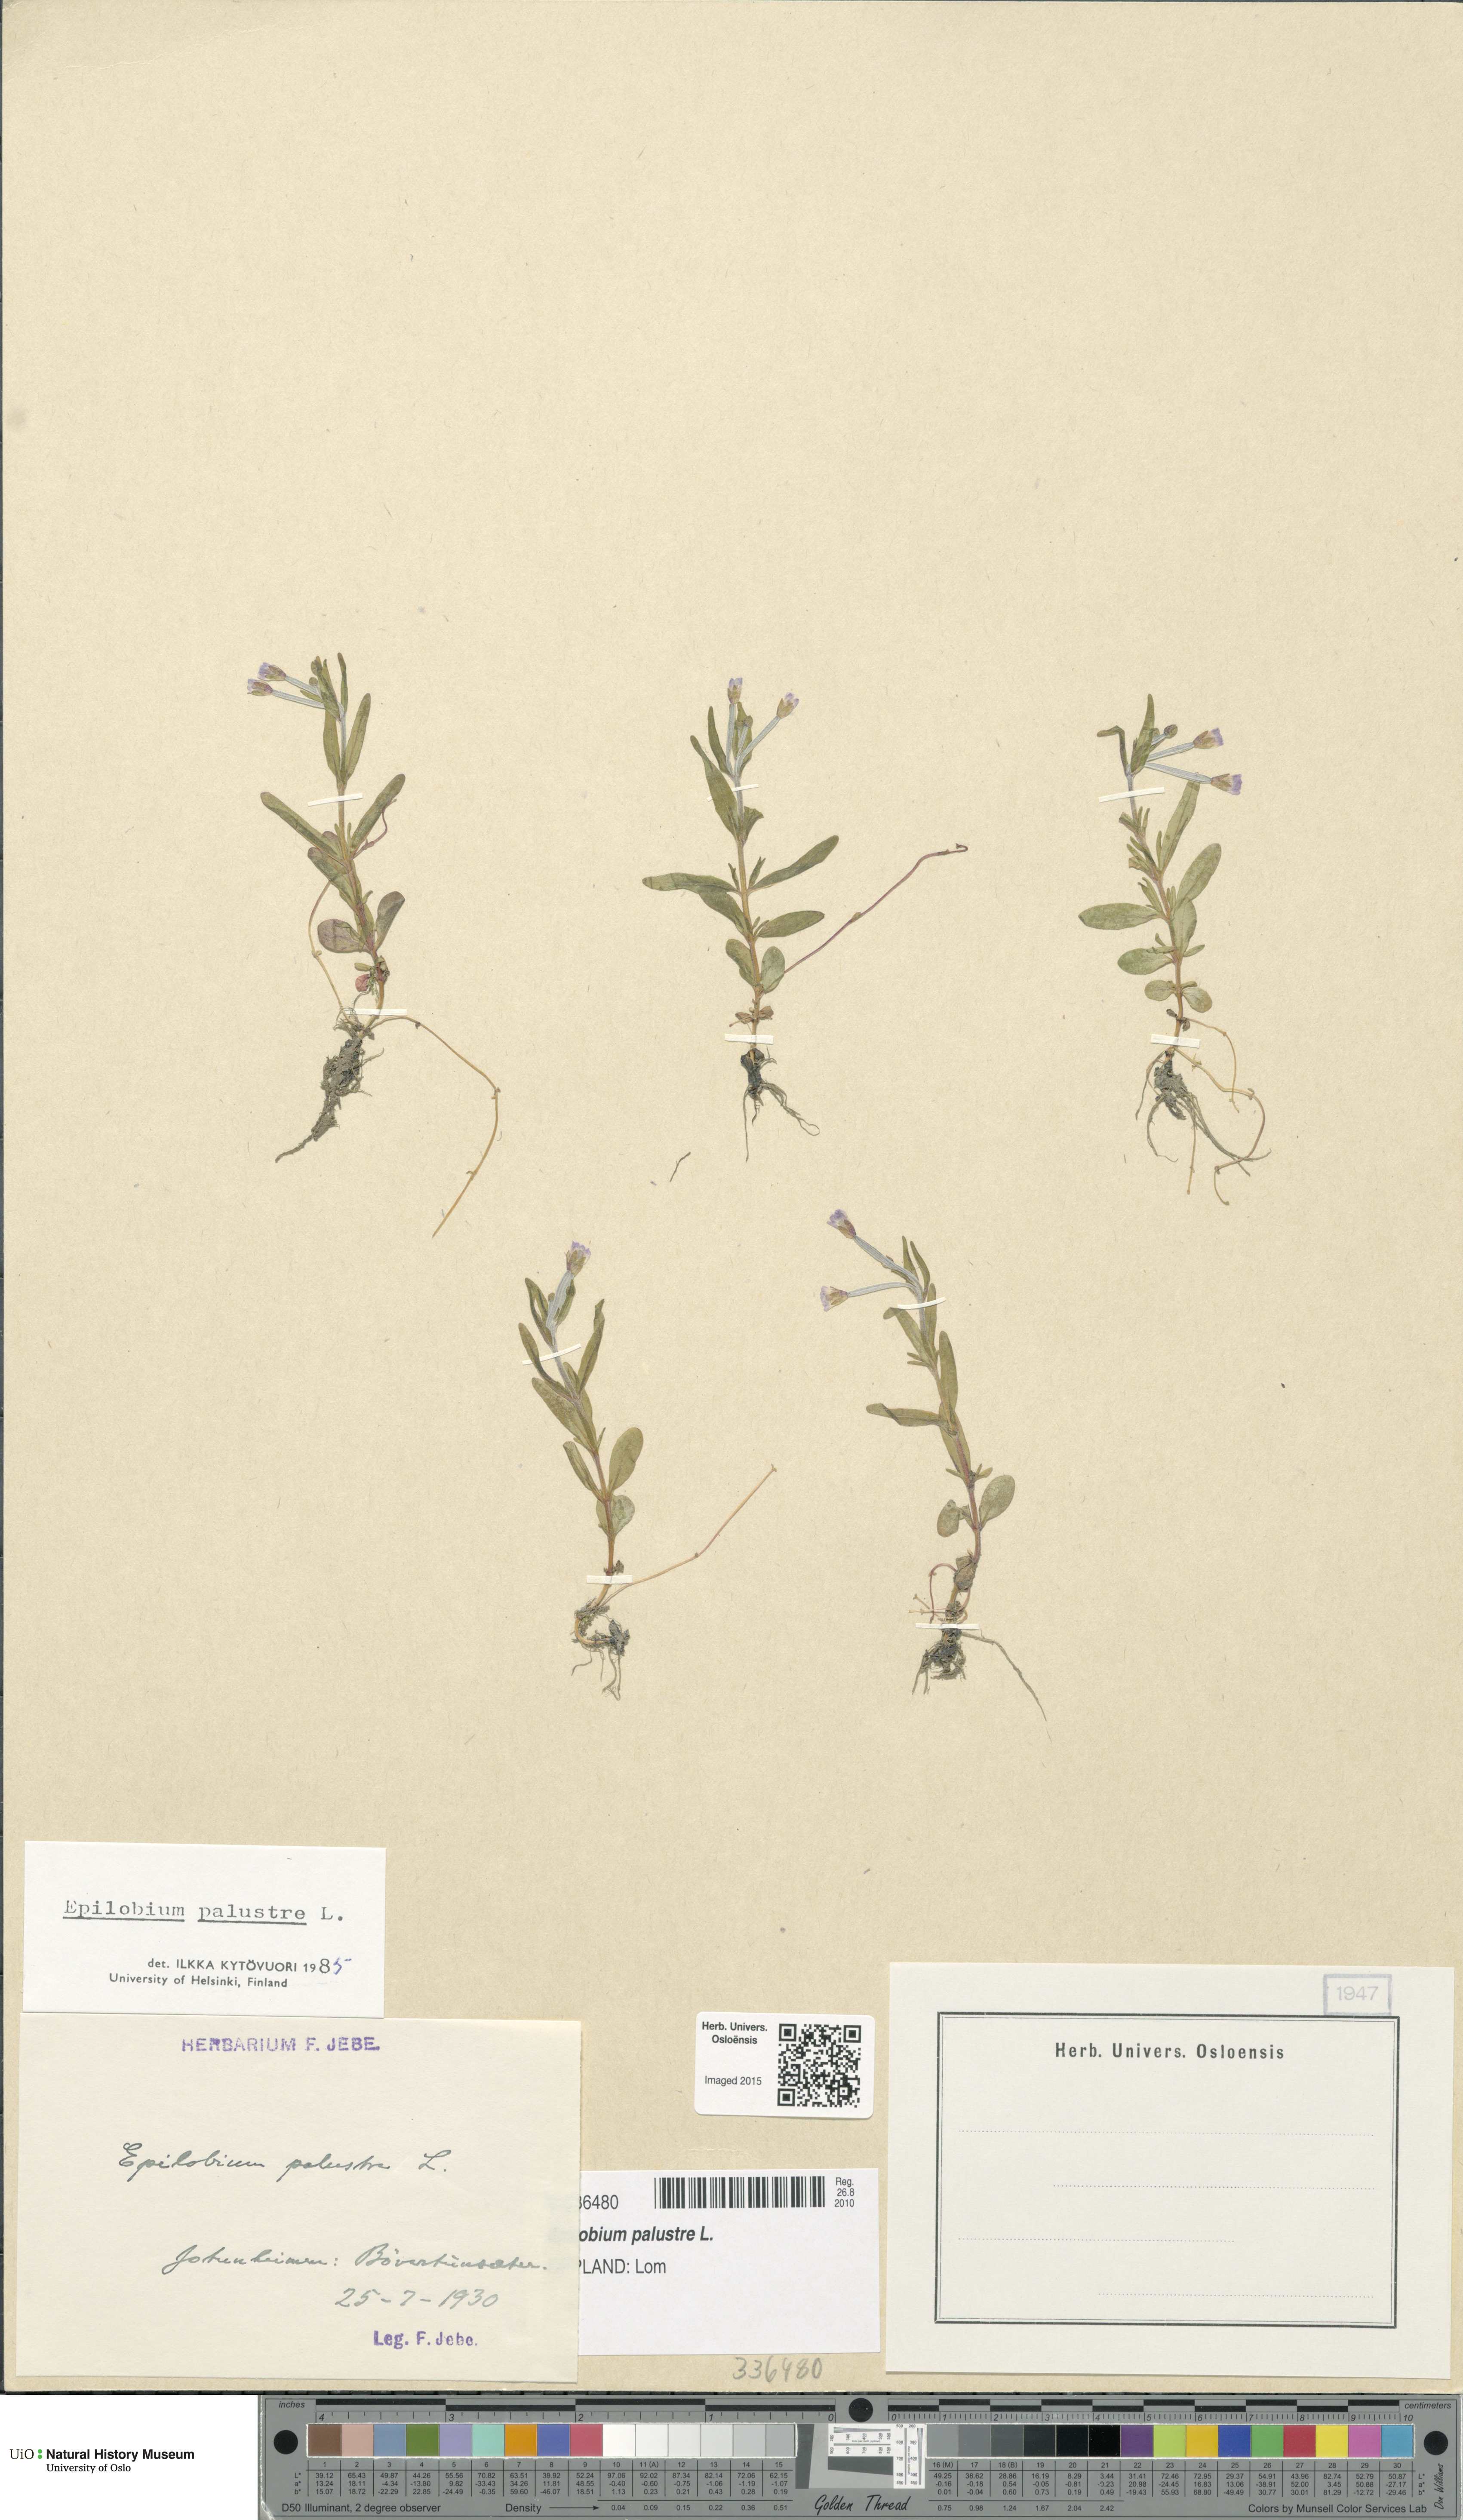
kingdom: Plantae
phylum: Tracheophyta
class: Magnoliopsida
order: Myrtales
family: Onagraceae
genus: Epilobium
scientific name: Epilobium palustre
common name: Marsh willowherb
